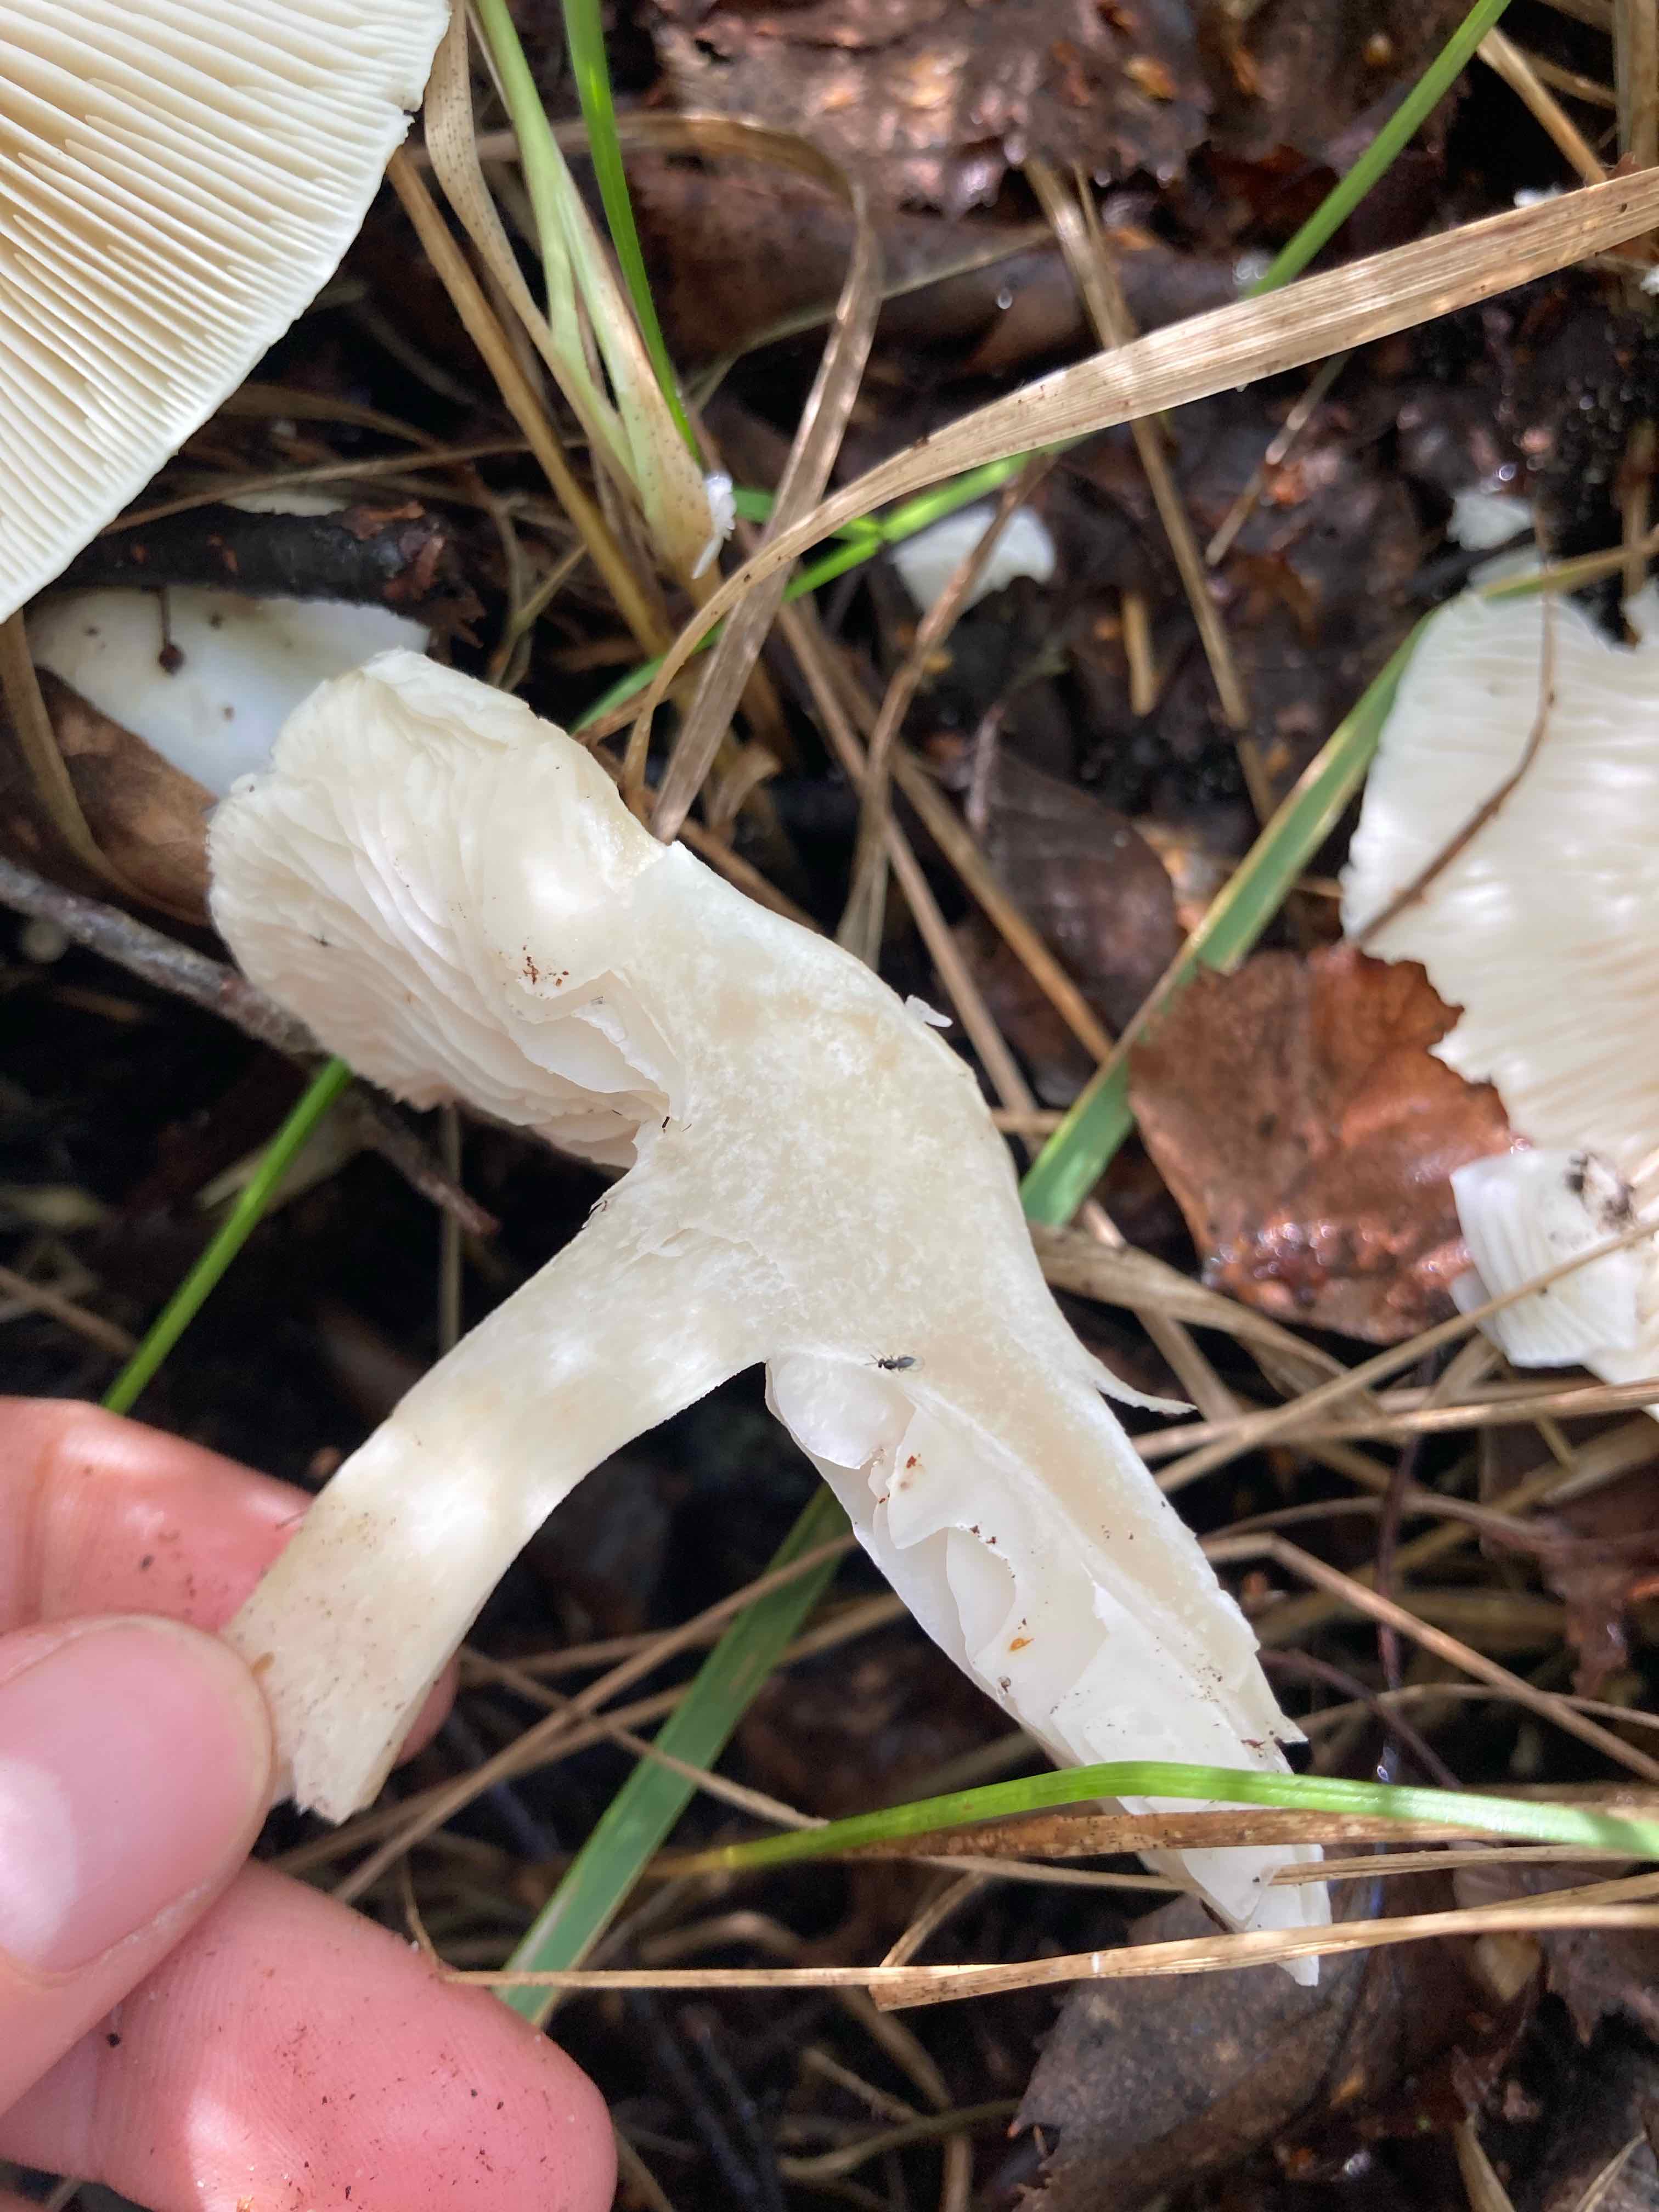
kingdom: Fungi
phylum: Basidiomycota
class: Agaricomycetes
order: Agaricales
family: Tricholomataceae
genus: Tricholoma
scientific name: Tricholoma stiparophyllum
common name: hvid ridderhat
